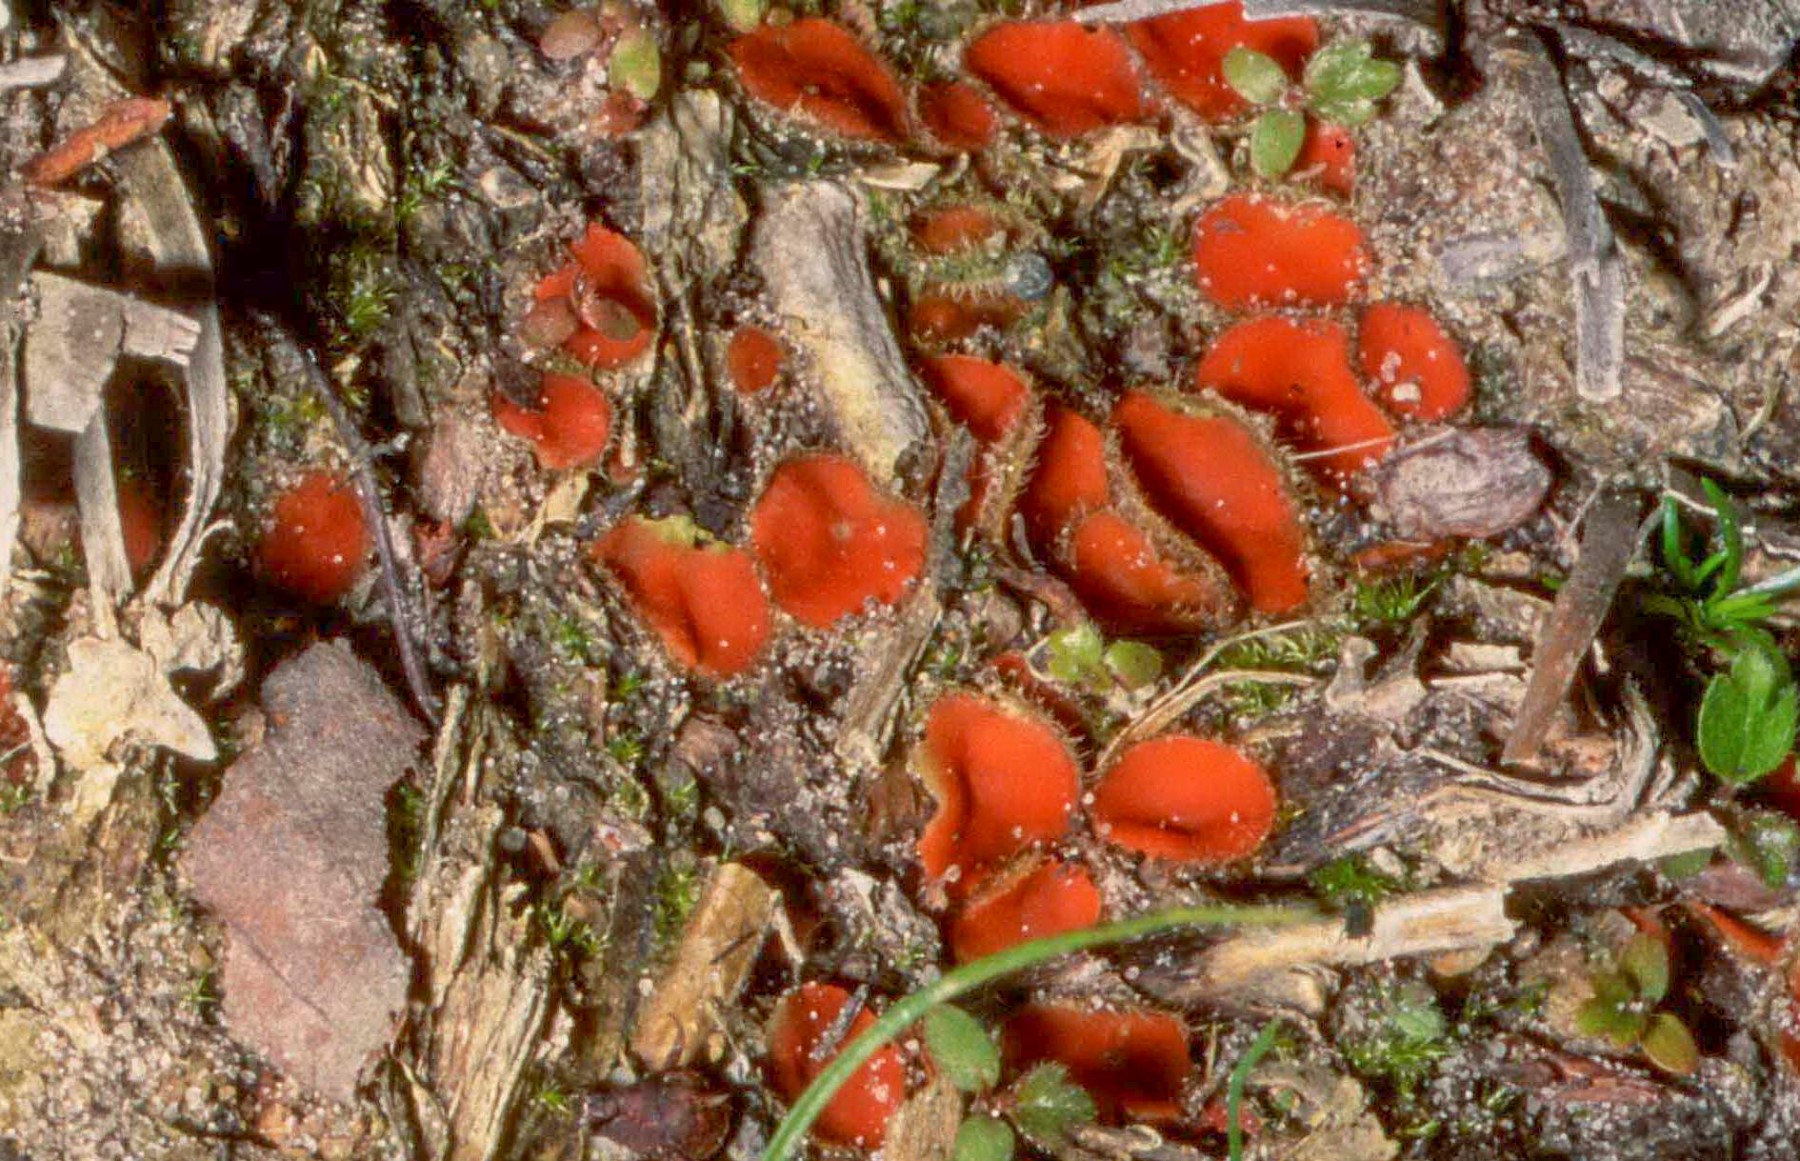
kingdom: Fungi
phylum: Ascomycota
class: Pezizomycetes
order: Pezizales
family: Pyronemataceae
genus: Scutellinia
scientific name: Scutellinia
